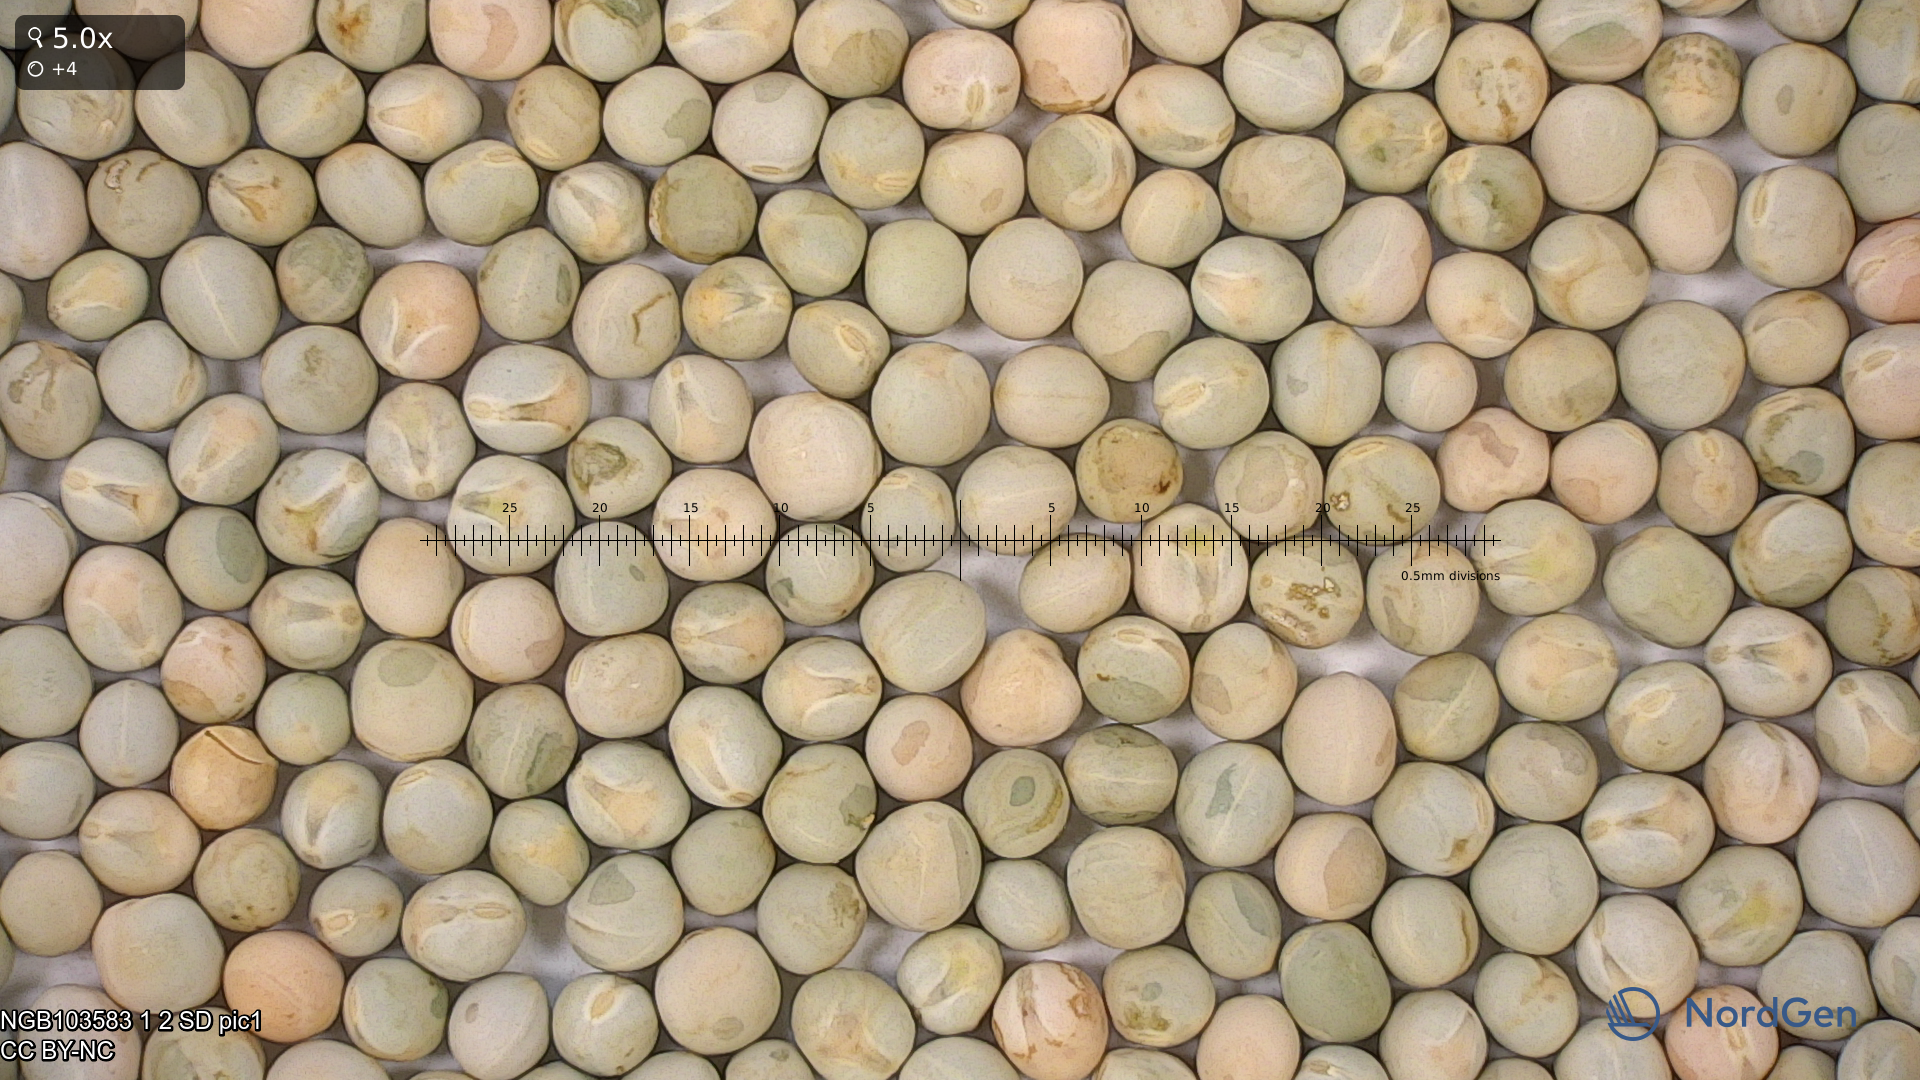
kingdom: Plantae
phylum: Tracheophyta
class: Magnoliopsida
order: Fabales
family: Fabaceae
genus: Lathyrus
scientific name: Lathyrus oleraceus
